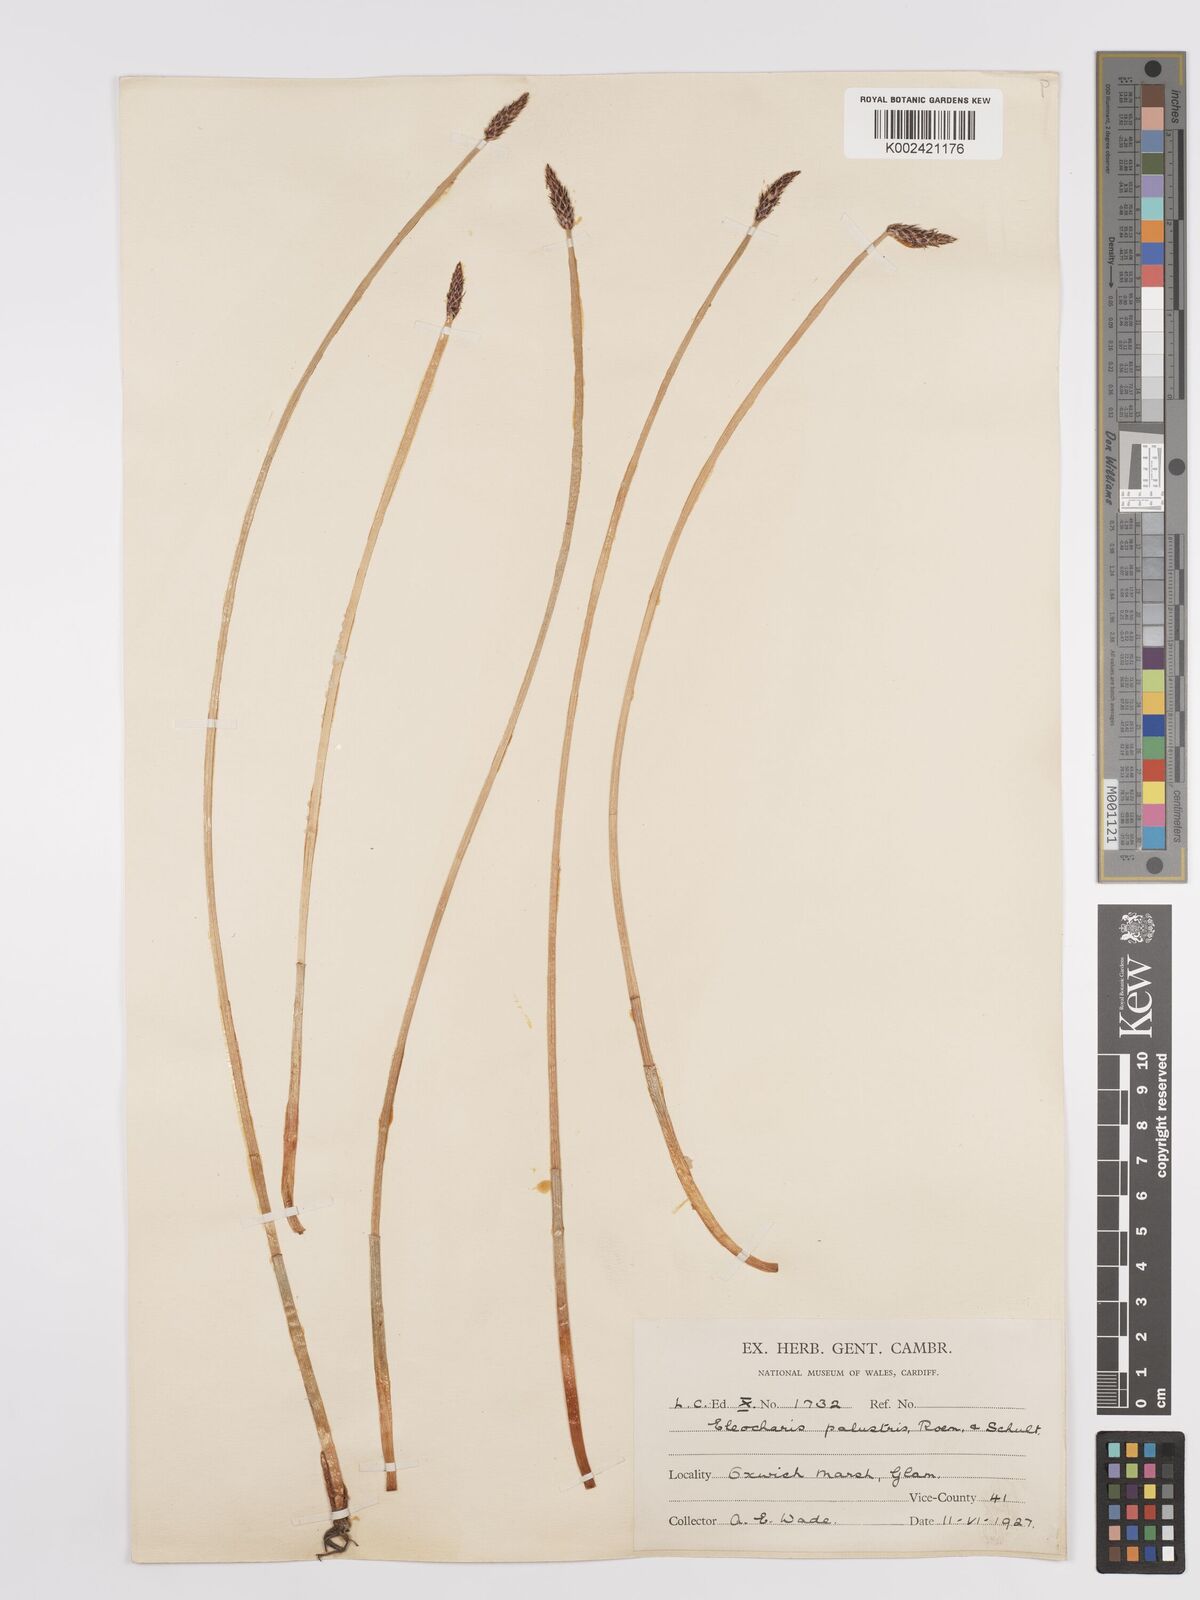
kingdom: Plantae
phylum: Tracheophyta
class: Liliopsida
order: Poales
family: Cyperaceae
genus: Eleocharis
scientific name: Eleocharis palustris
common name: Common spike-rush
